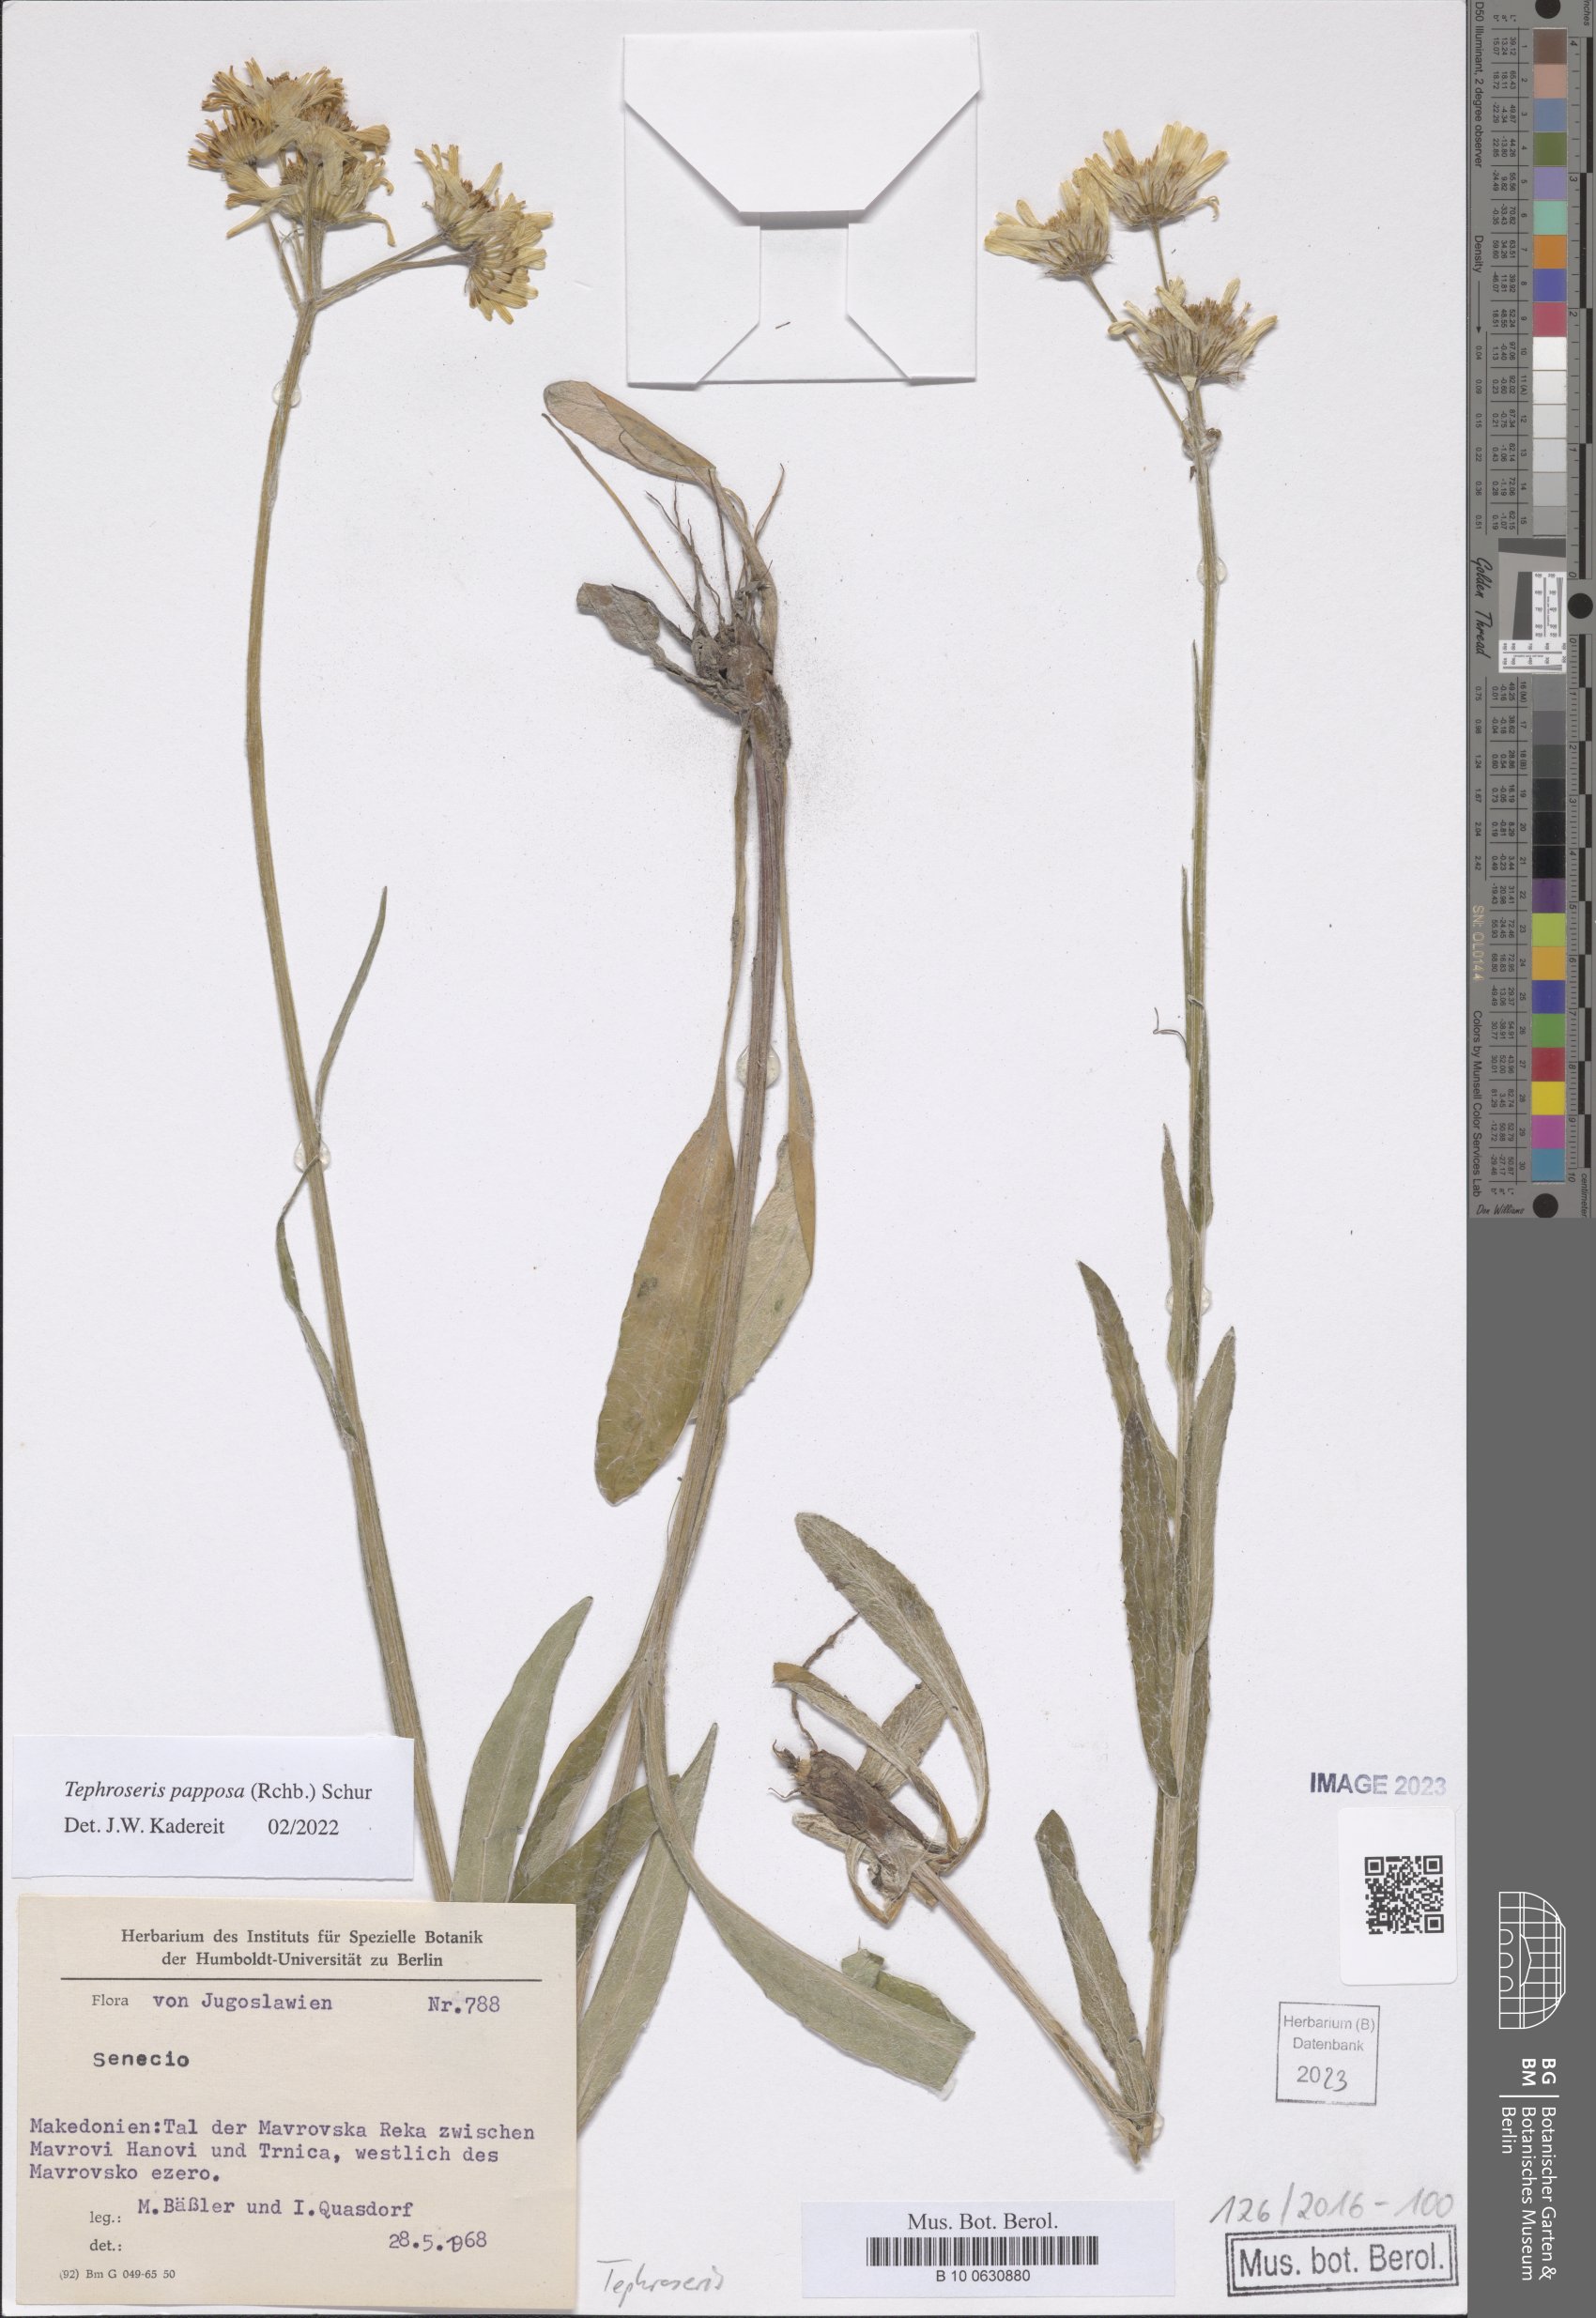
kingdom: Plantae
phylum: Tracheophyta
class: Magnoliopsida
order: Asterales
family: Asteraceae
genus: Tephroseris
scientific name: Tephroseris papposa
